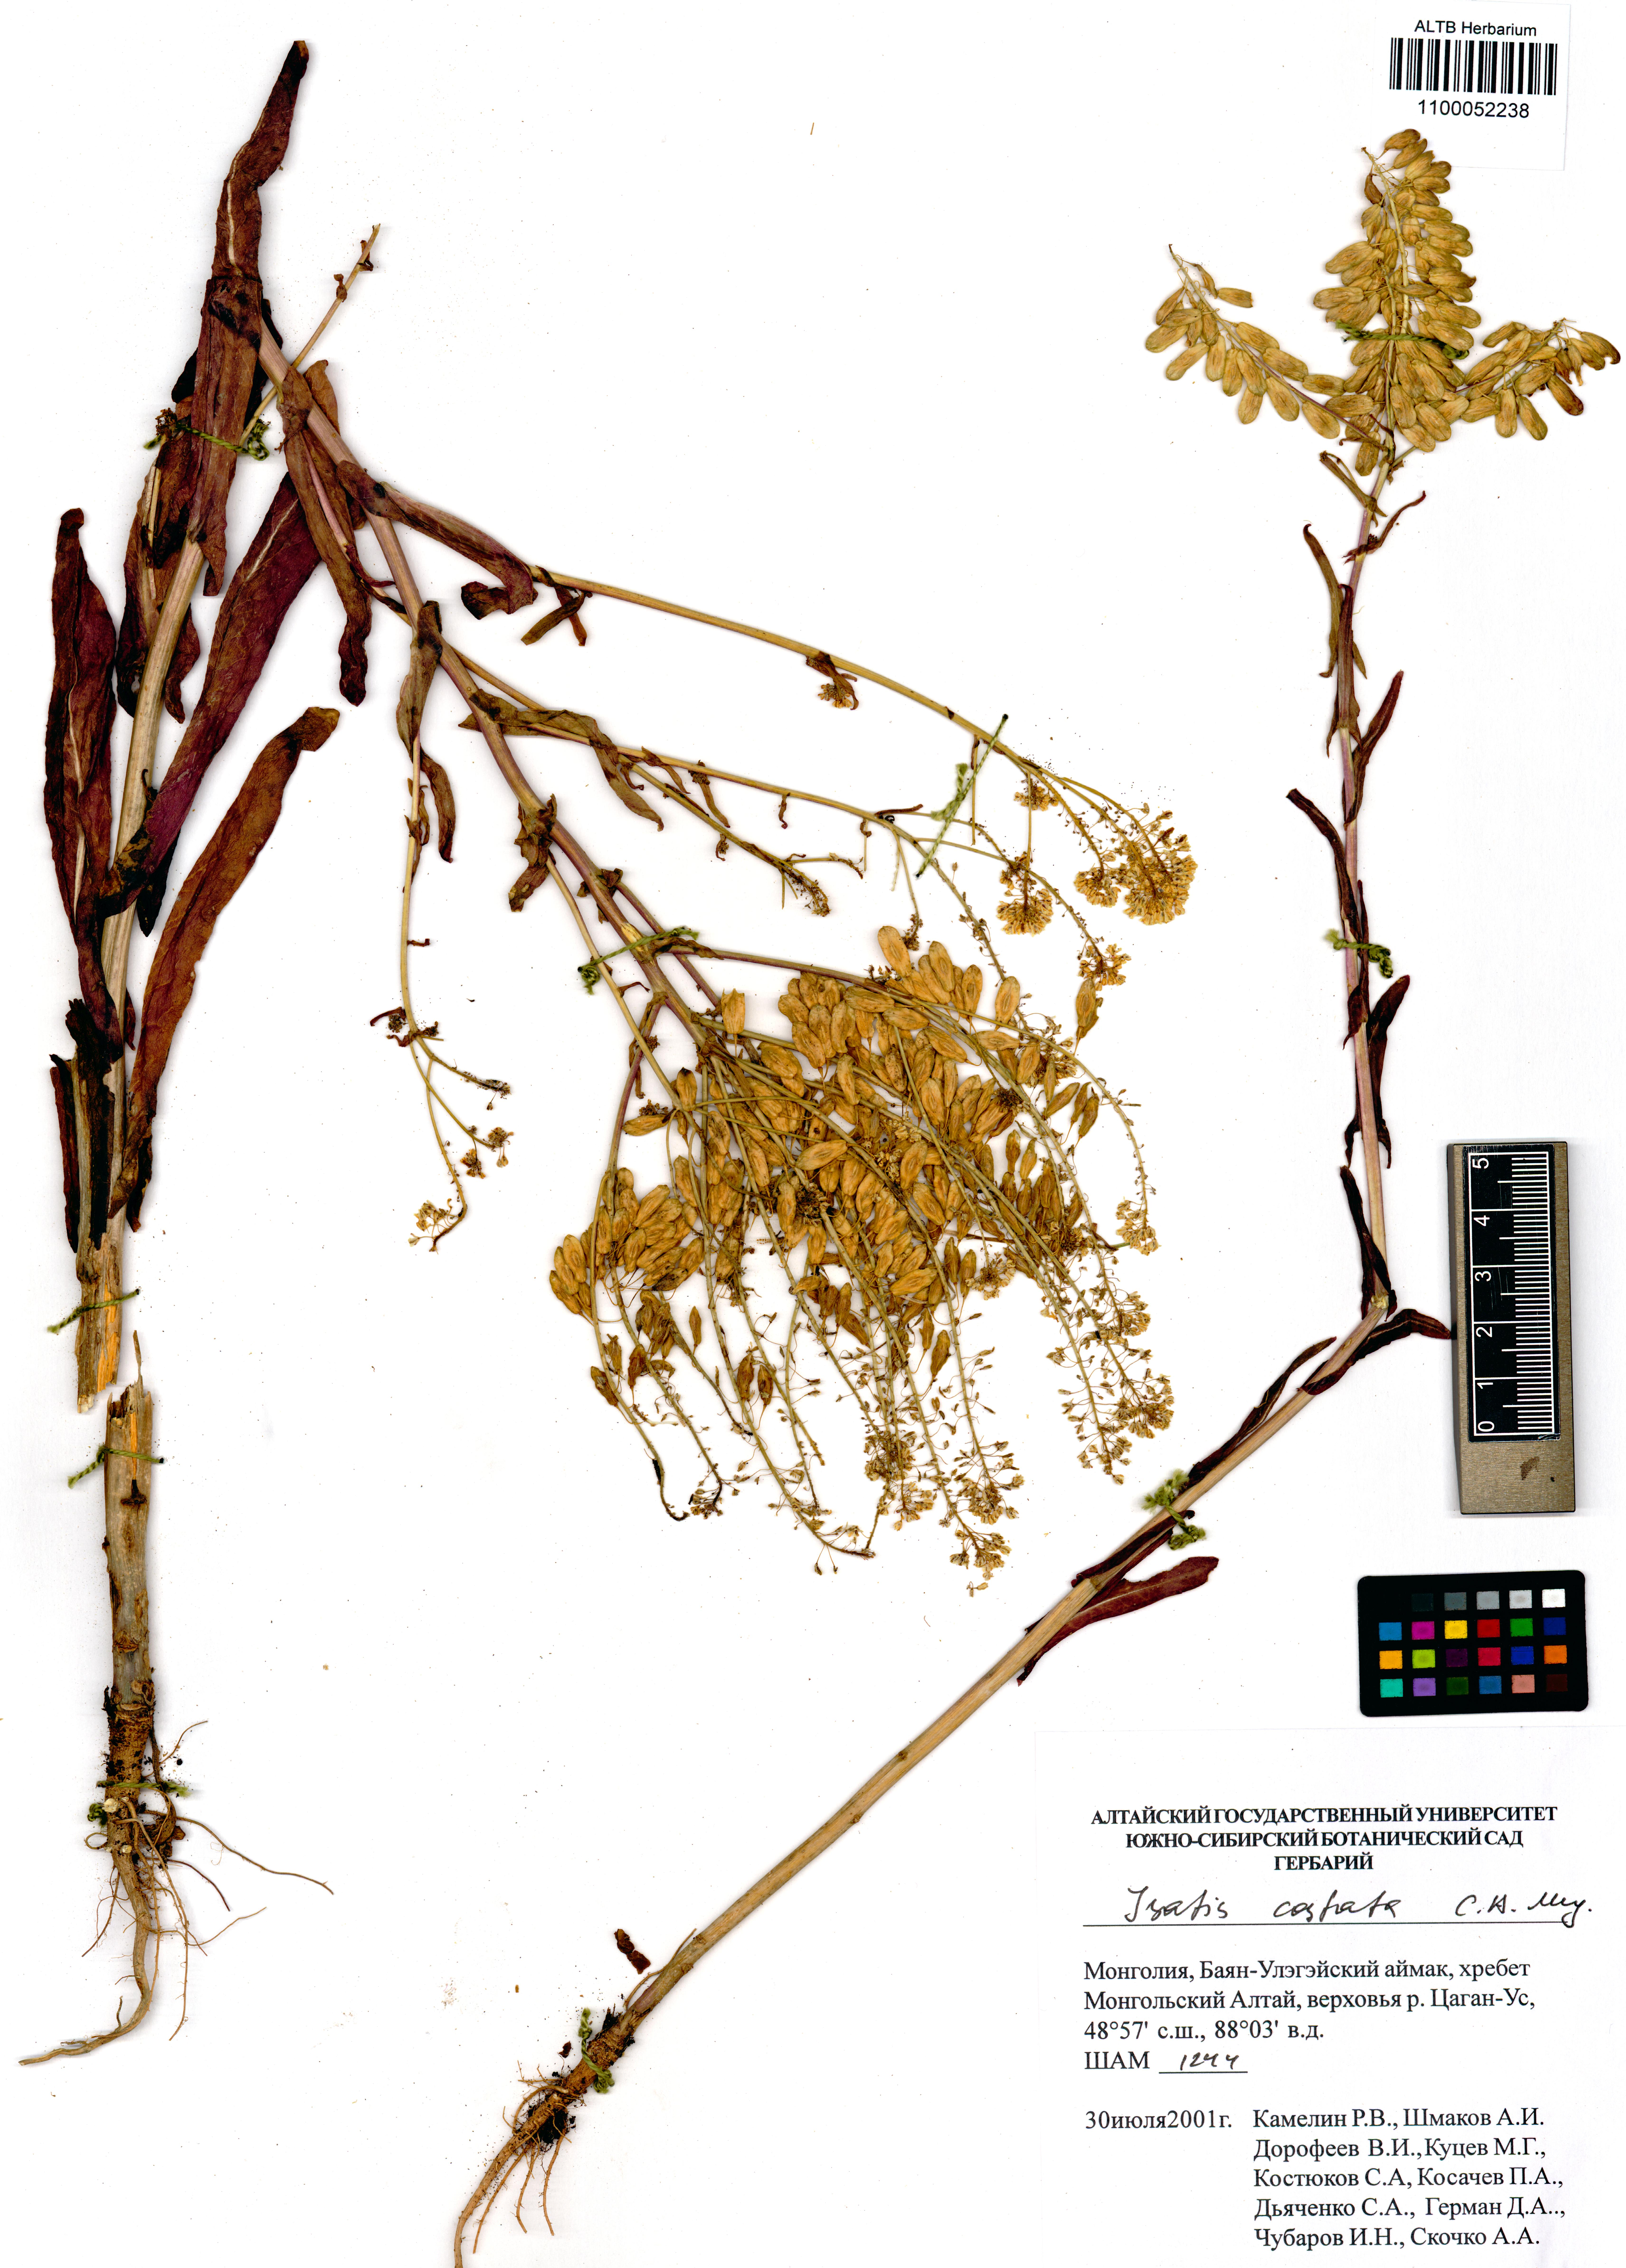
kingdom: Plantae
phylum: Tracheophyta
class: Magnoliopsida
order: Brassicales
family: Brassicaceae
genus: Isatis
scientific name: Isatis costata
